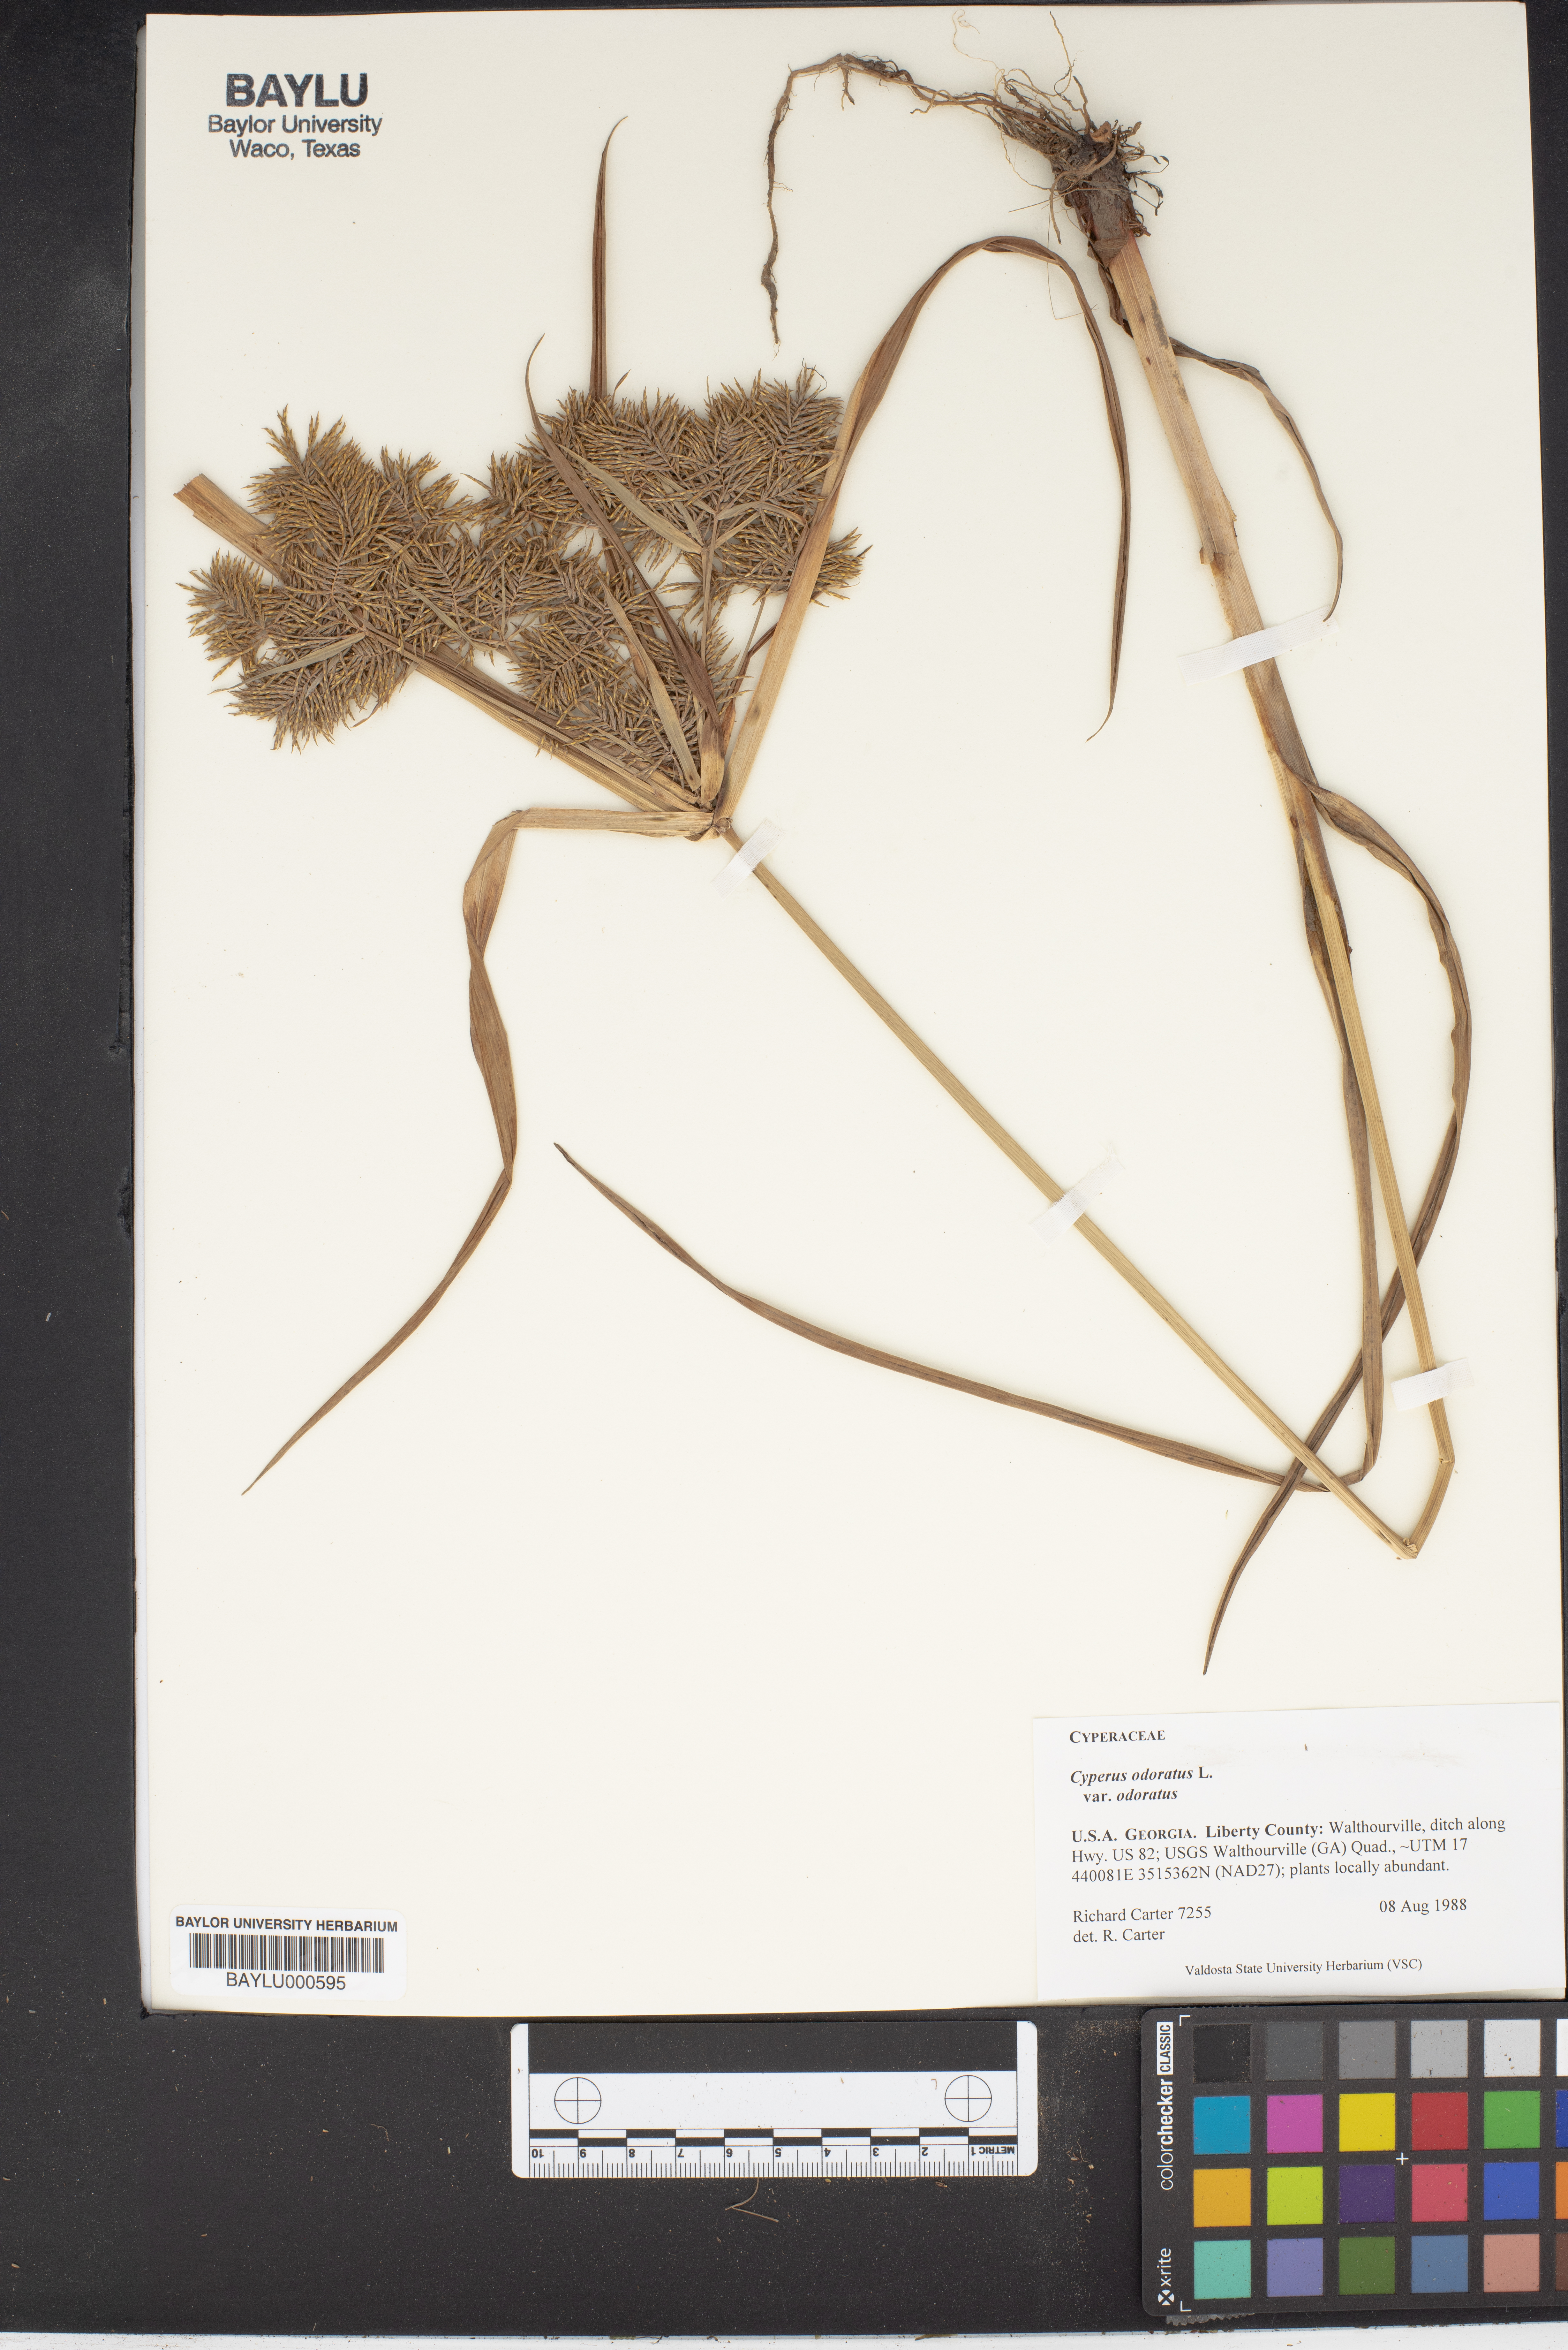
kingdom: Plantae
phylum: Tracheophyta
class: Liliopsida
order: Poales
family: Cyperaceae
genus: Cyperus
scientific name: Cyperus odoratus
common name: Fragrant flatsedge
